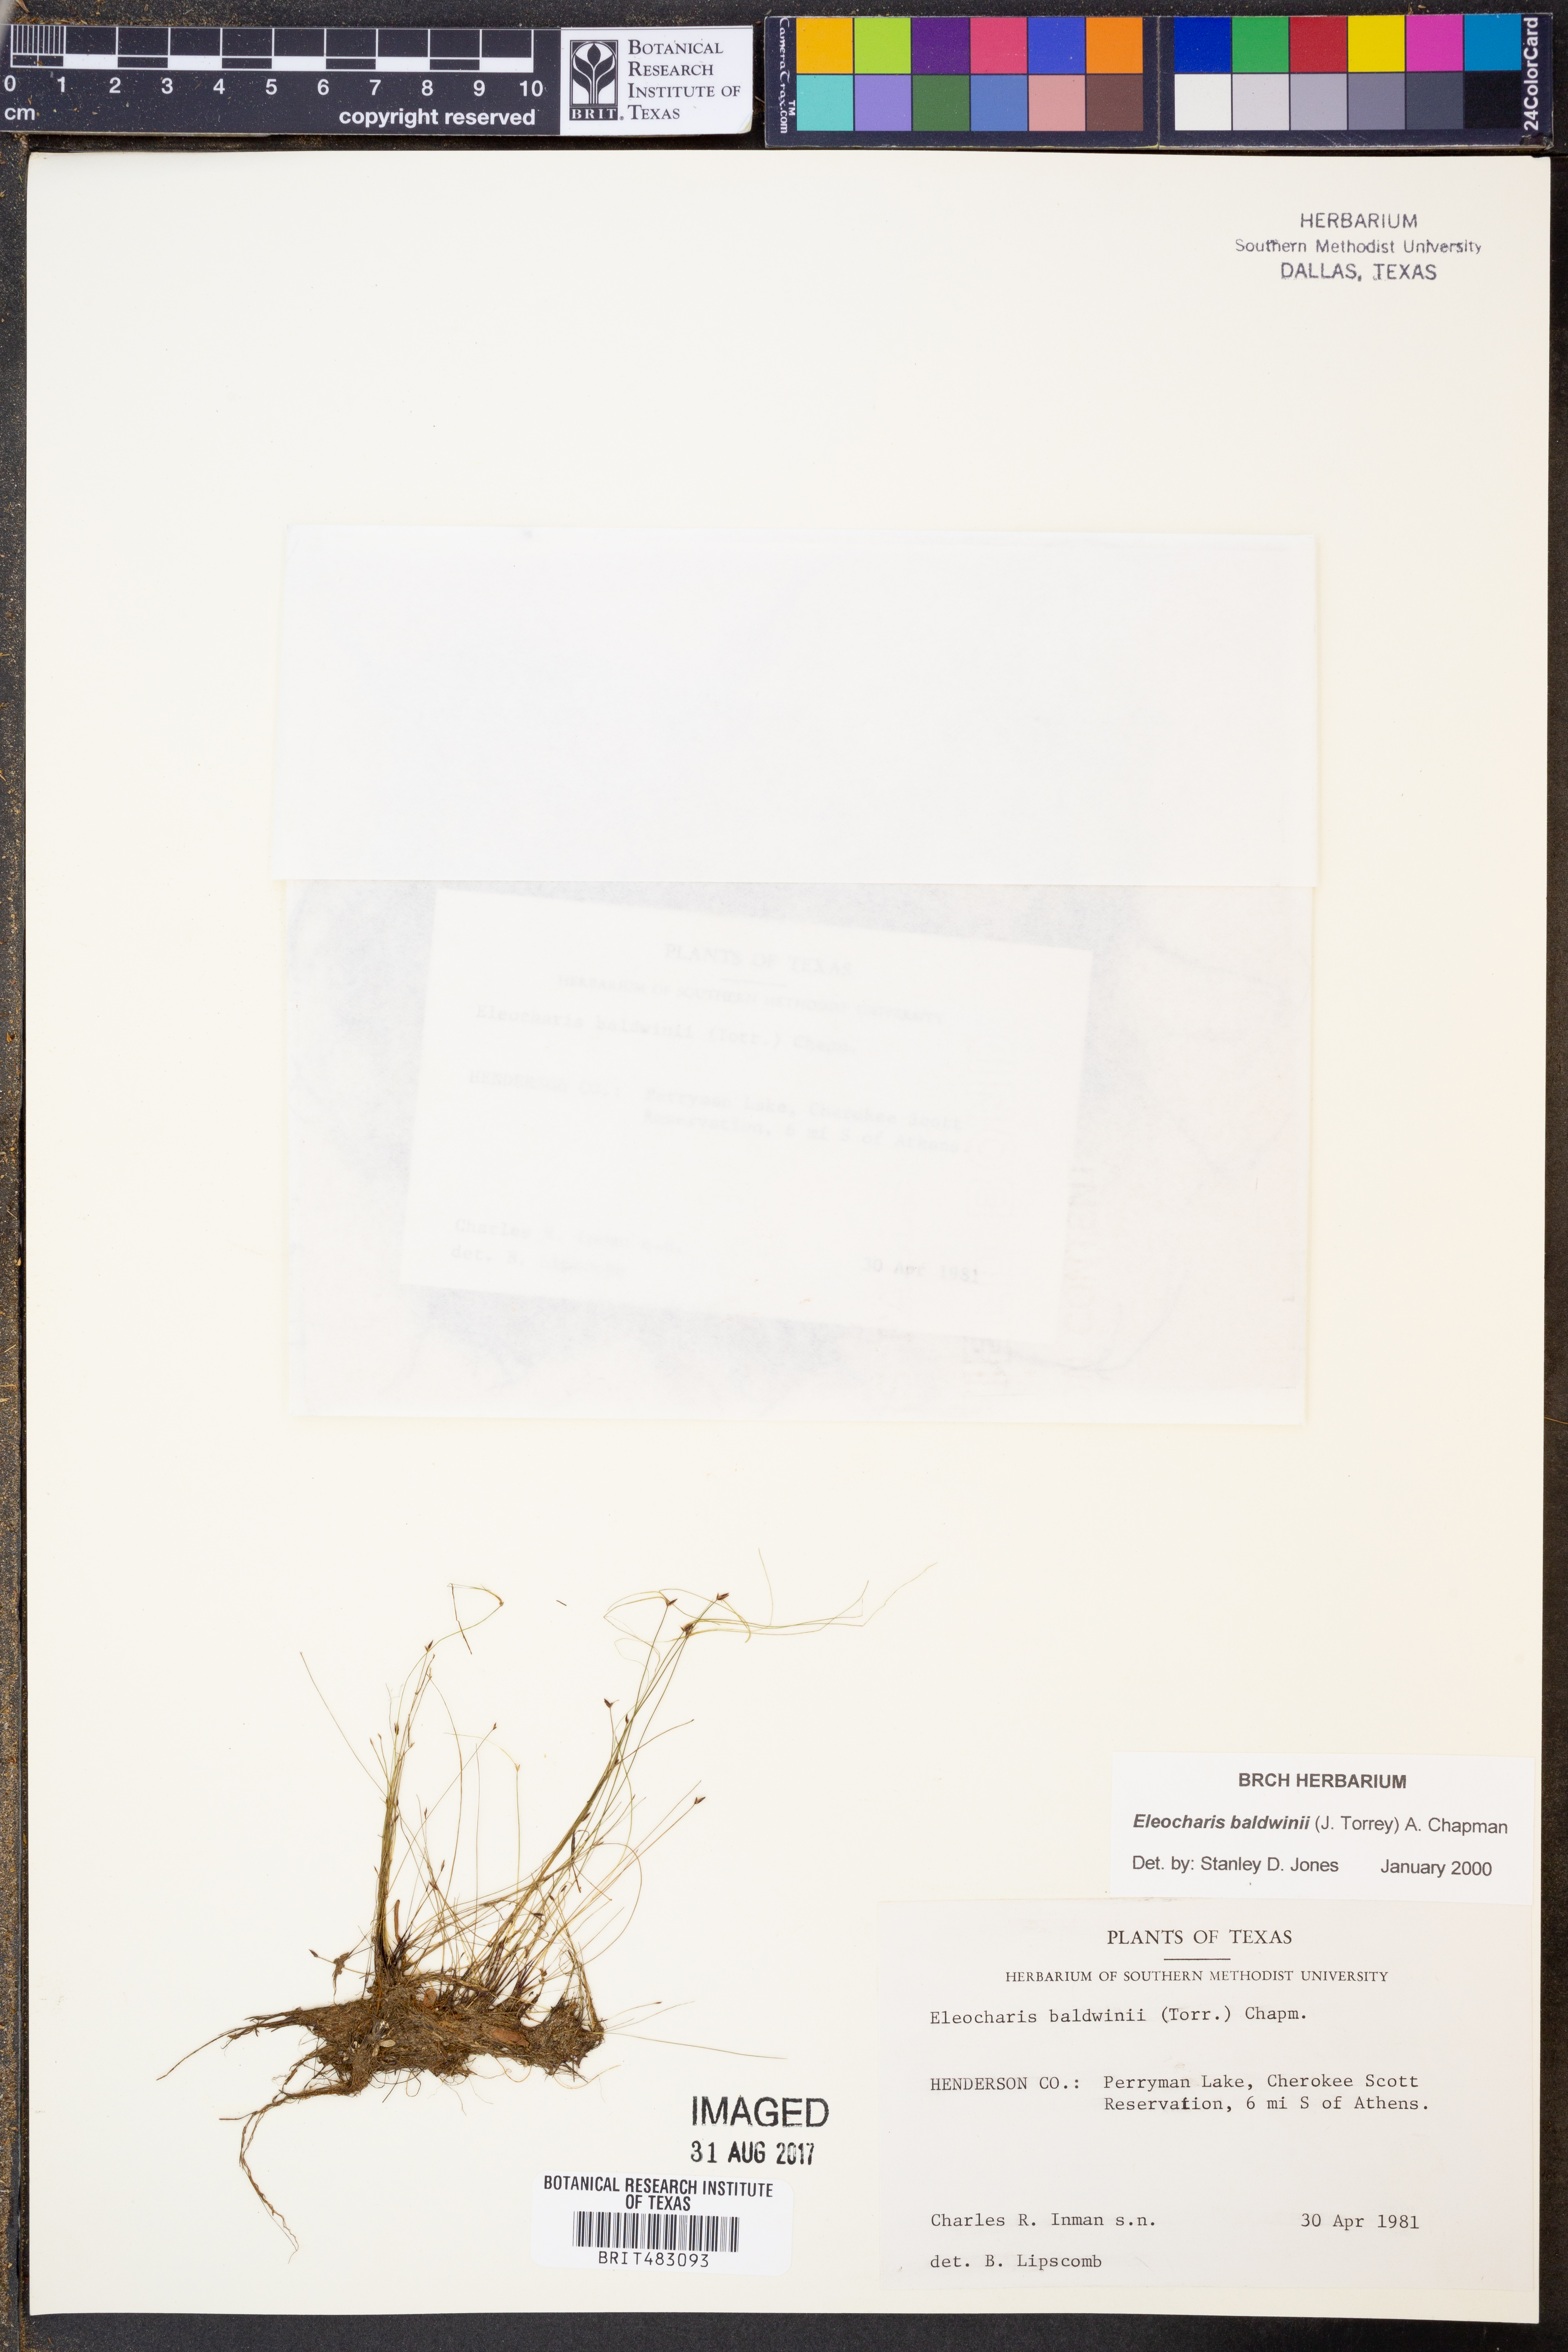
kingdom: Plantae
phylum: Tracheophyta
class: Liliopsida
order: Poales
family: Cyperaceae
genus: Eleocharis
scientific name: Eleocharis baldwinii
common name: Baldwin's spike-rush
